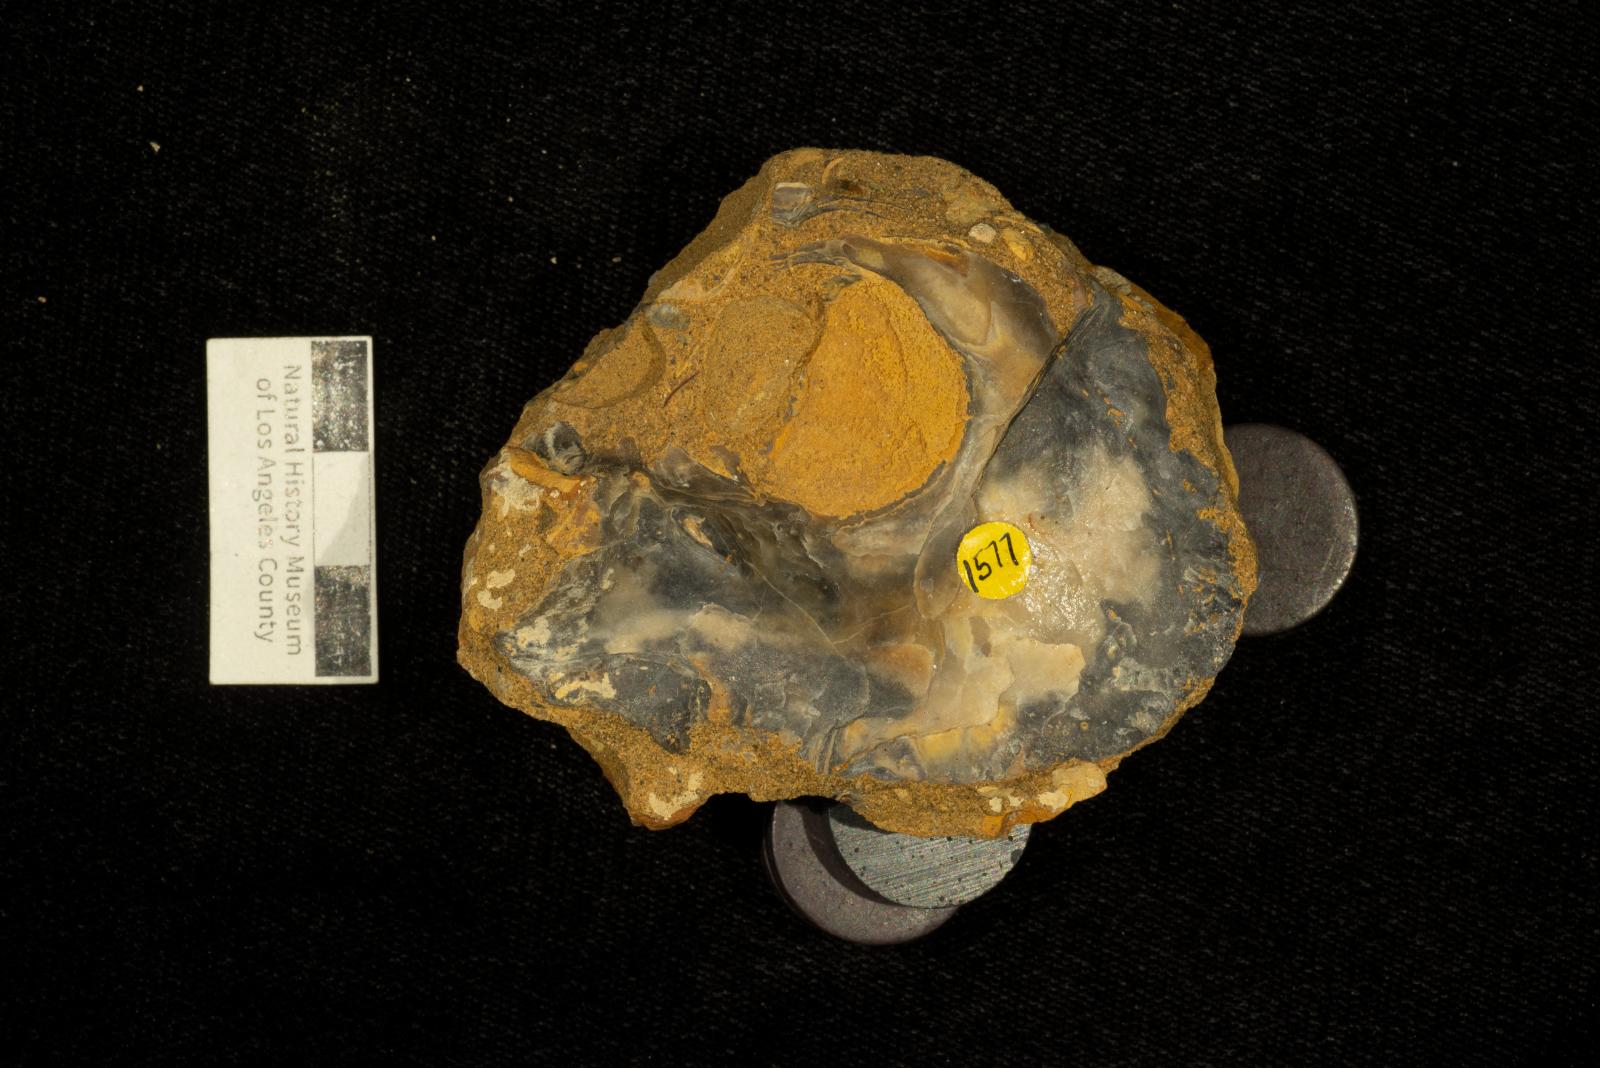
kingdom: Animalia
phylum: Mollusca
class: Bivalvia
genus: Phygraea
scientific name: Phygraea
